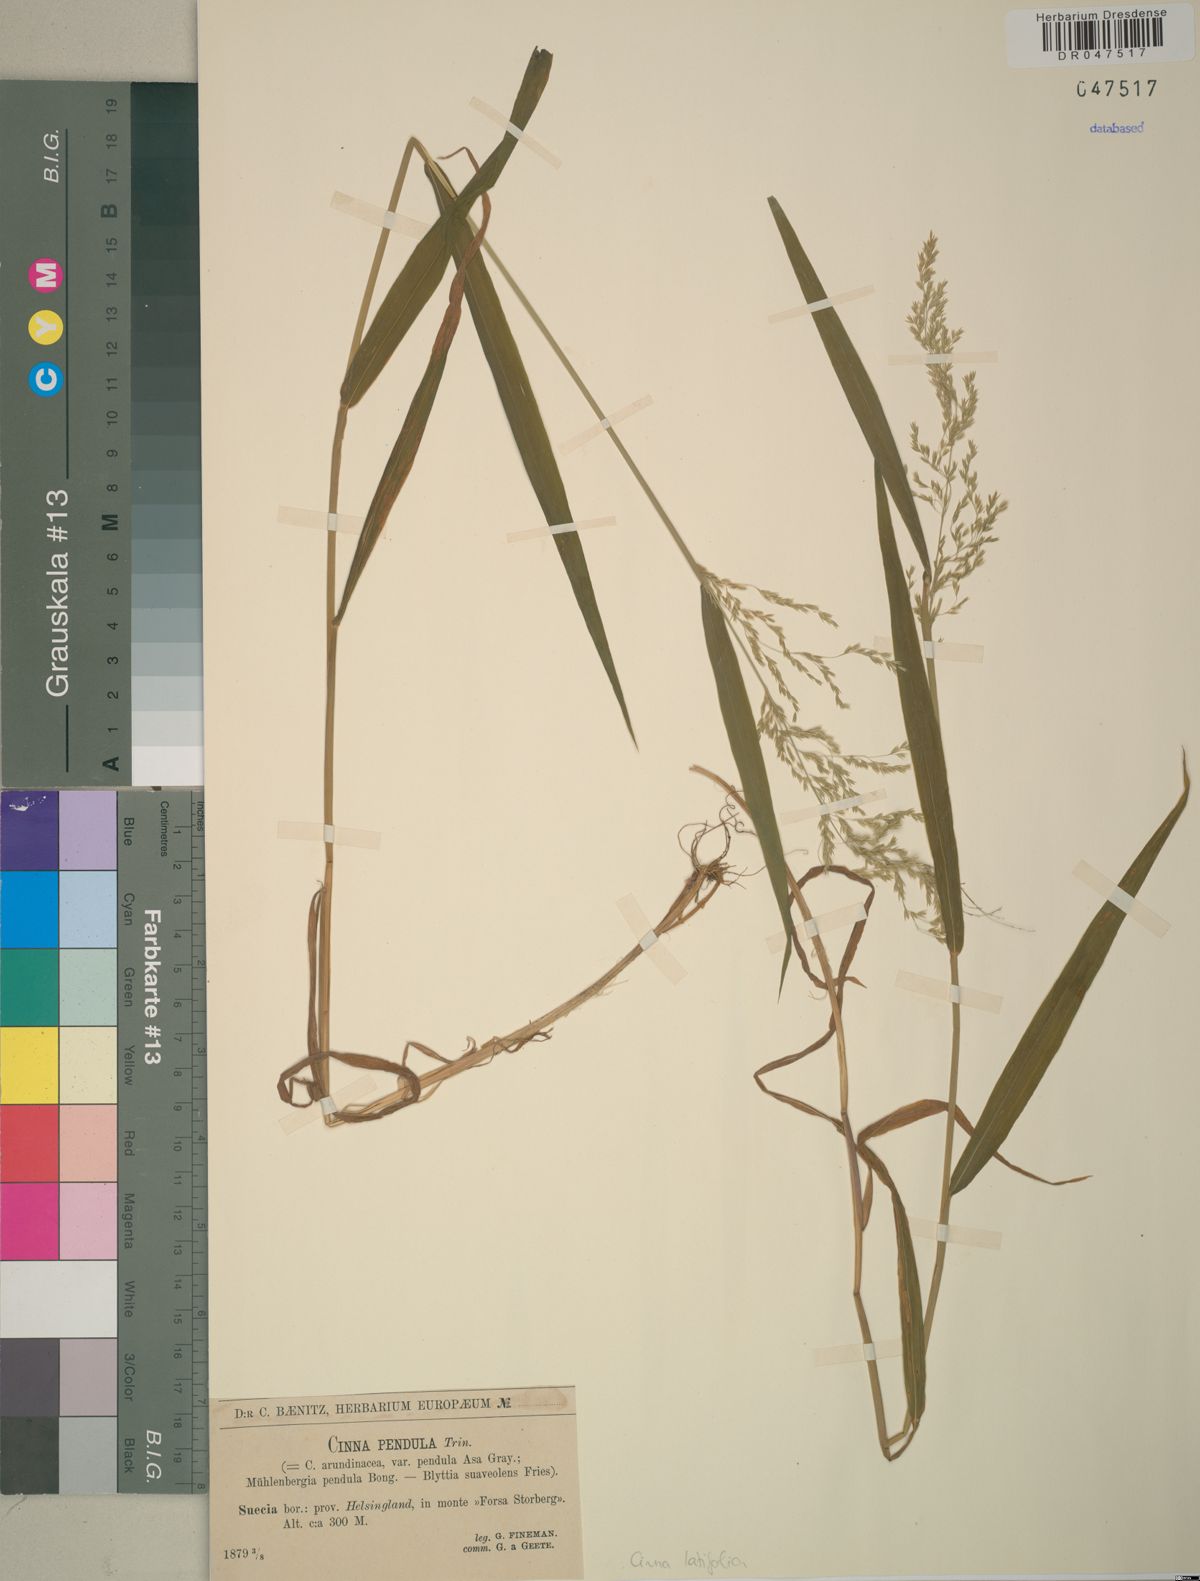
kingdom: Plantae
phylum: Tracheophyta
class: Liliopsida
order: Poales
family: Poaceae
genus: Cinna
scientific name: Cinna latifolia
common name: Drooping woodreed
